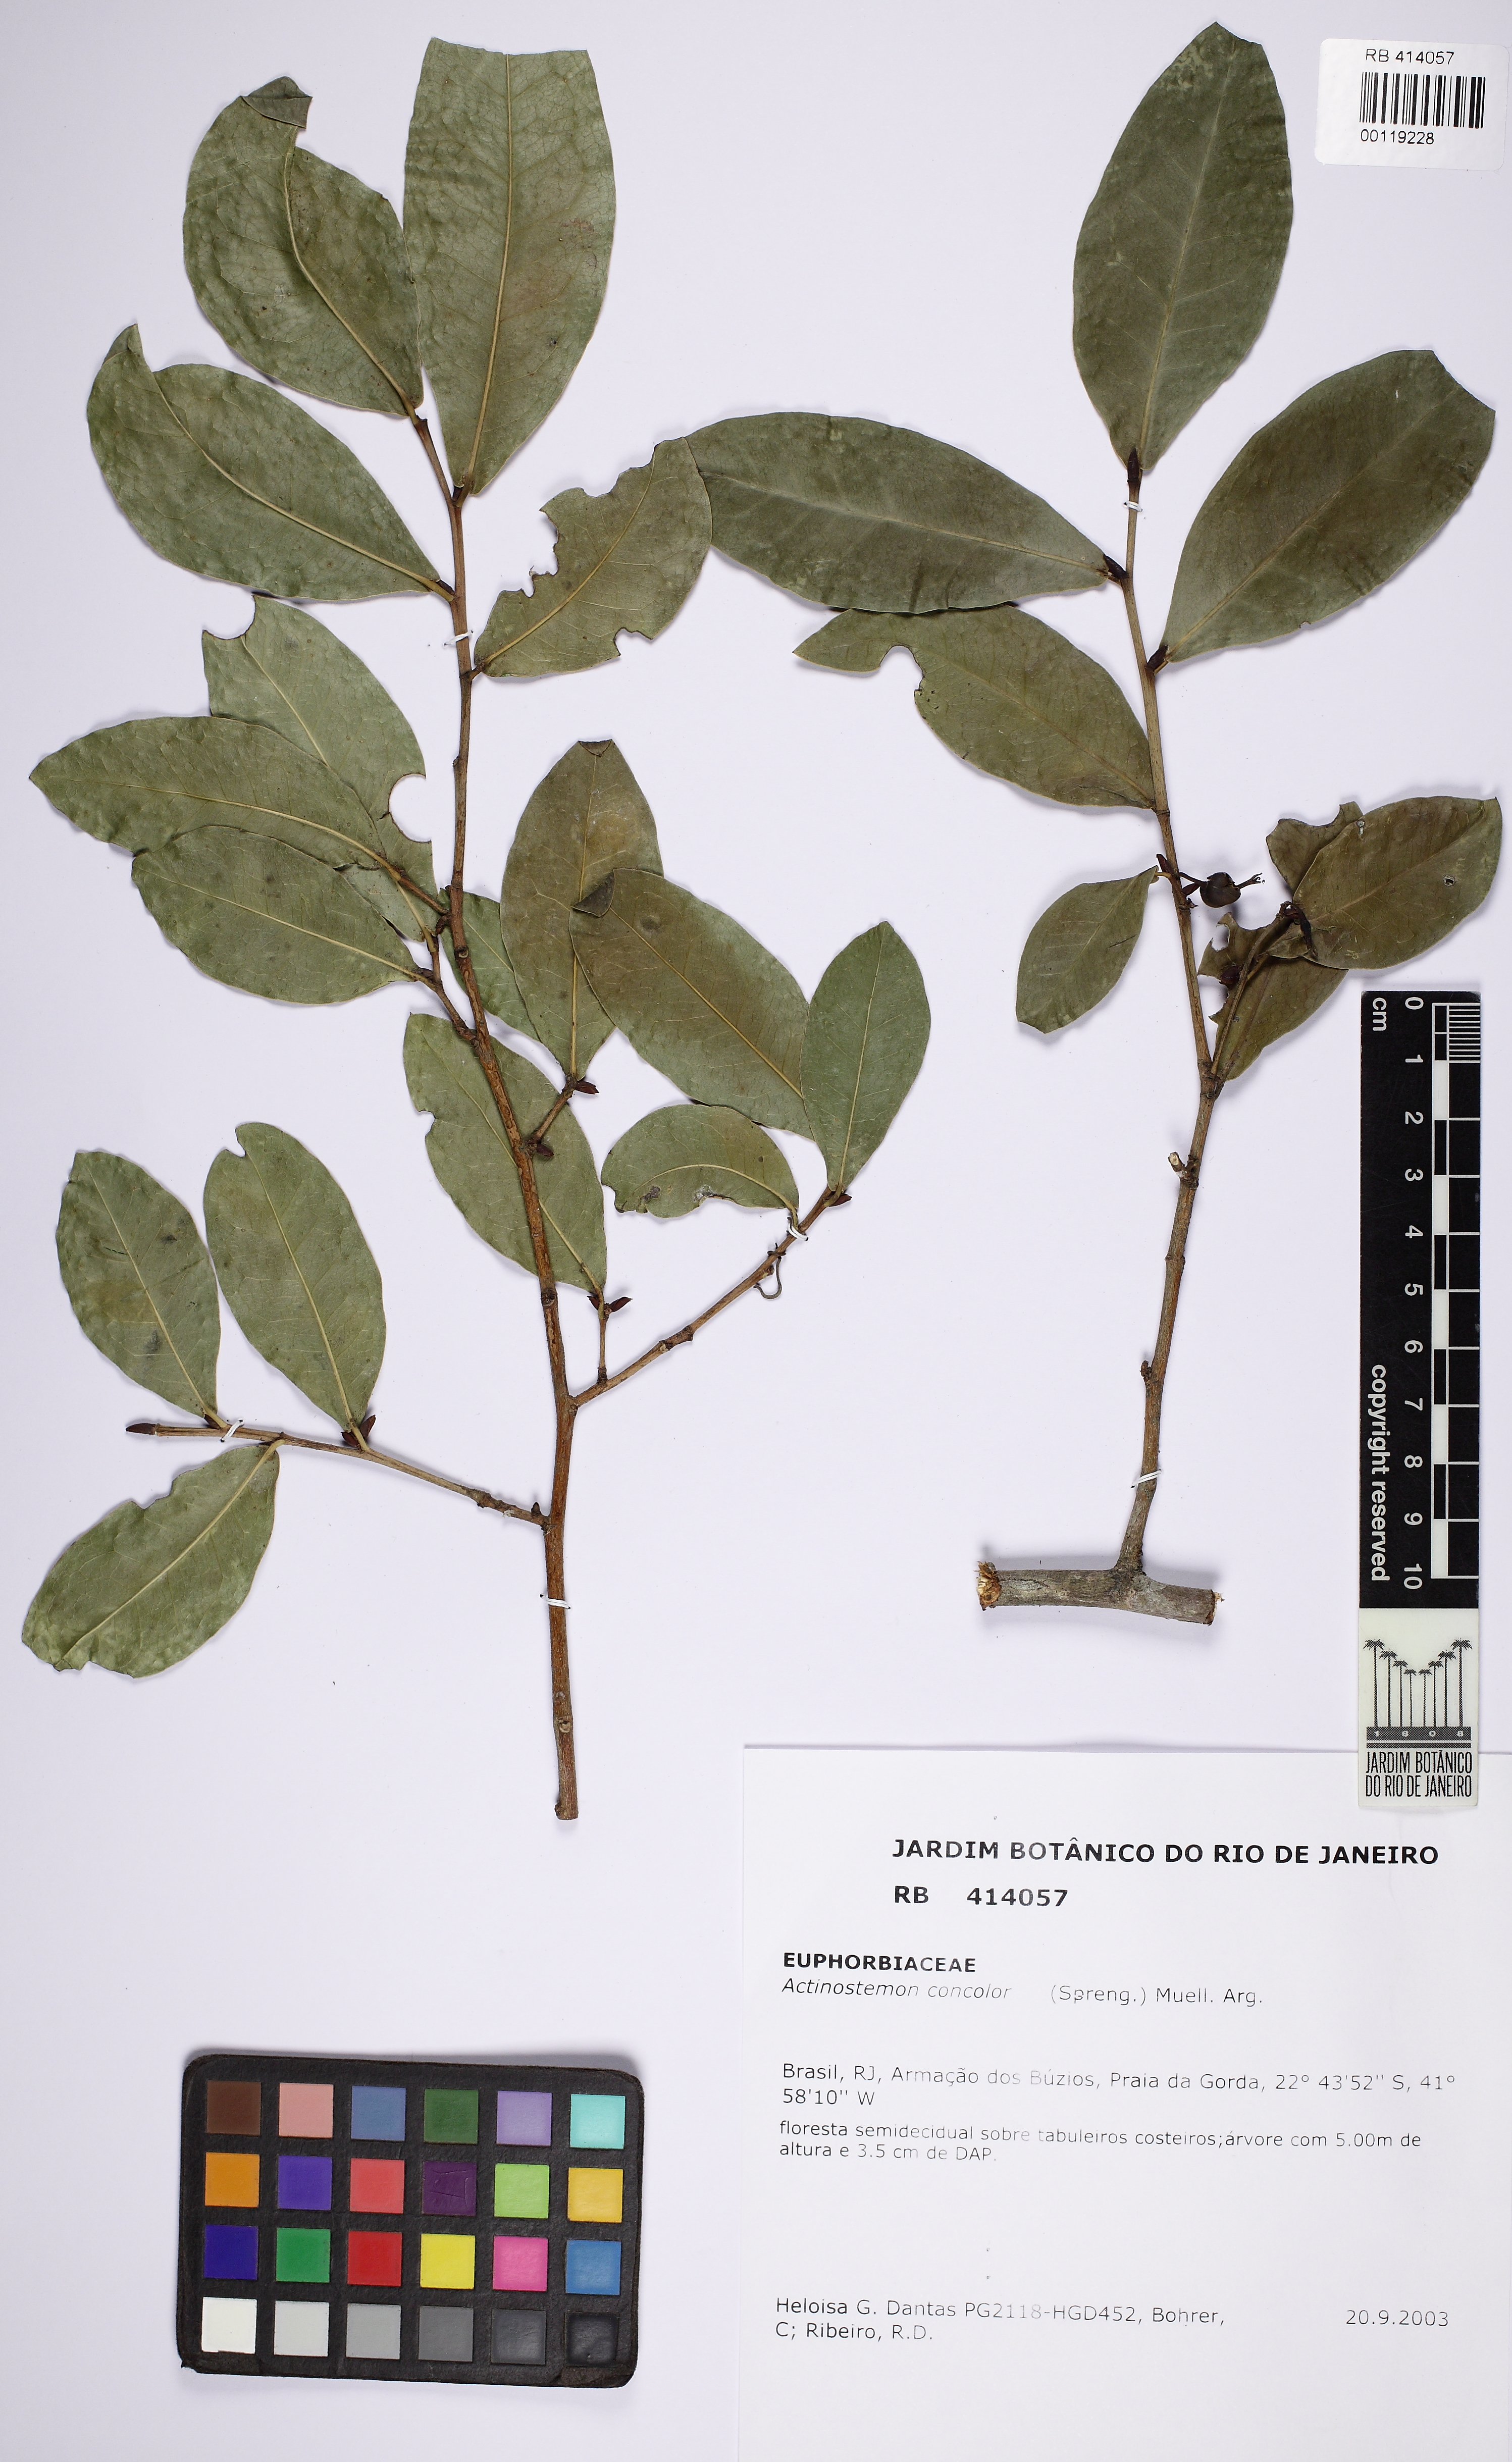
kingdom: Plantae
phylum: Tracheophyta
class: Magnoliopsida
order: Malpighiales
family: Euphorbiaceae
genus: Actinostemon
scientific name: Actinostemon concolor
